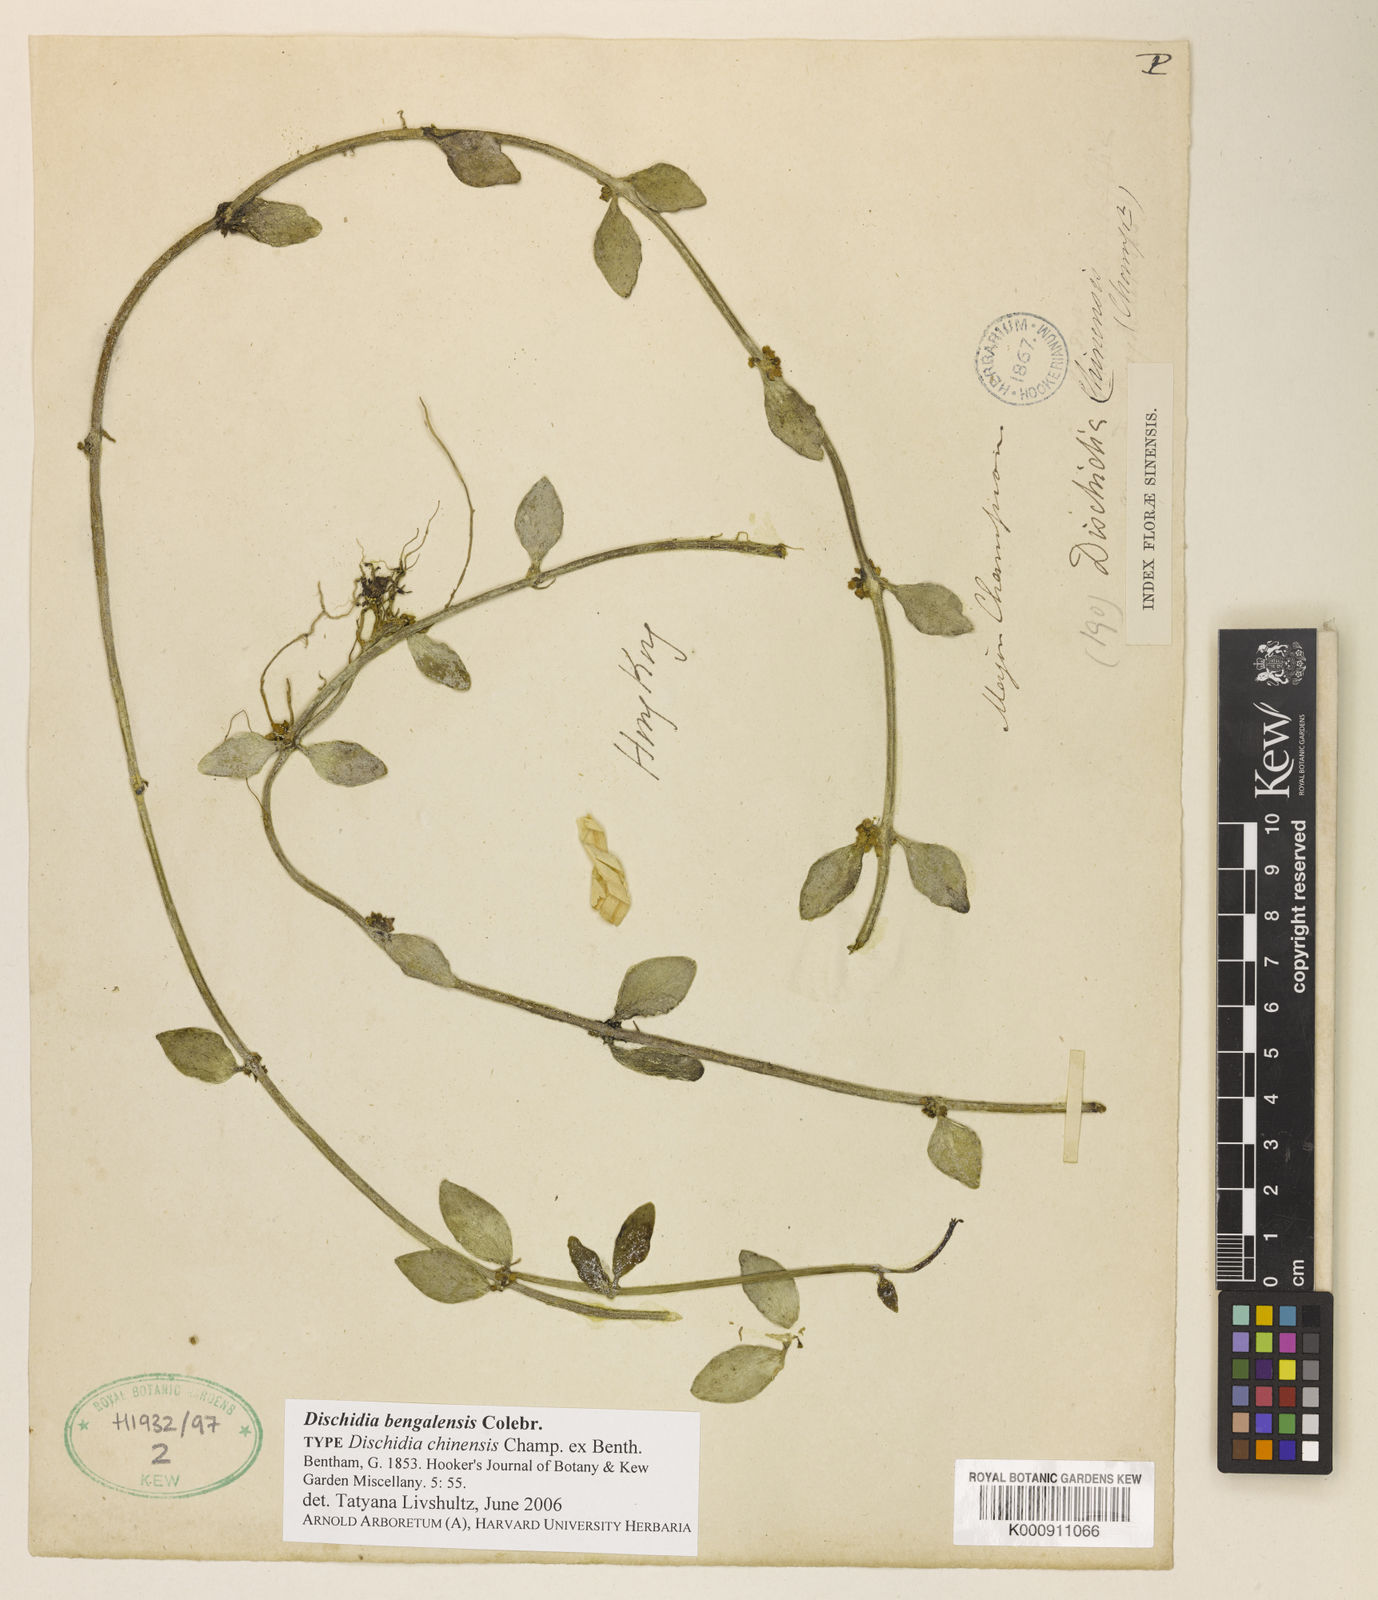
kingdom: Plantae
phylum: Tracheophyta
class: Magnoliopsida
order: Gentianales
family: Apocynaceae
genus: Dischidia
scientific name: Dischidia bengalensis
